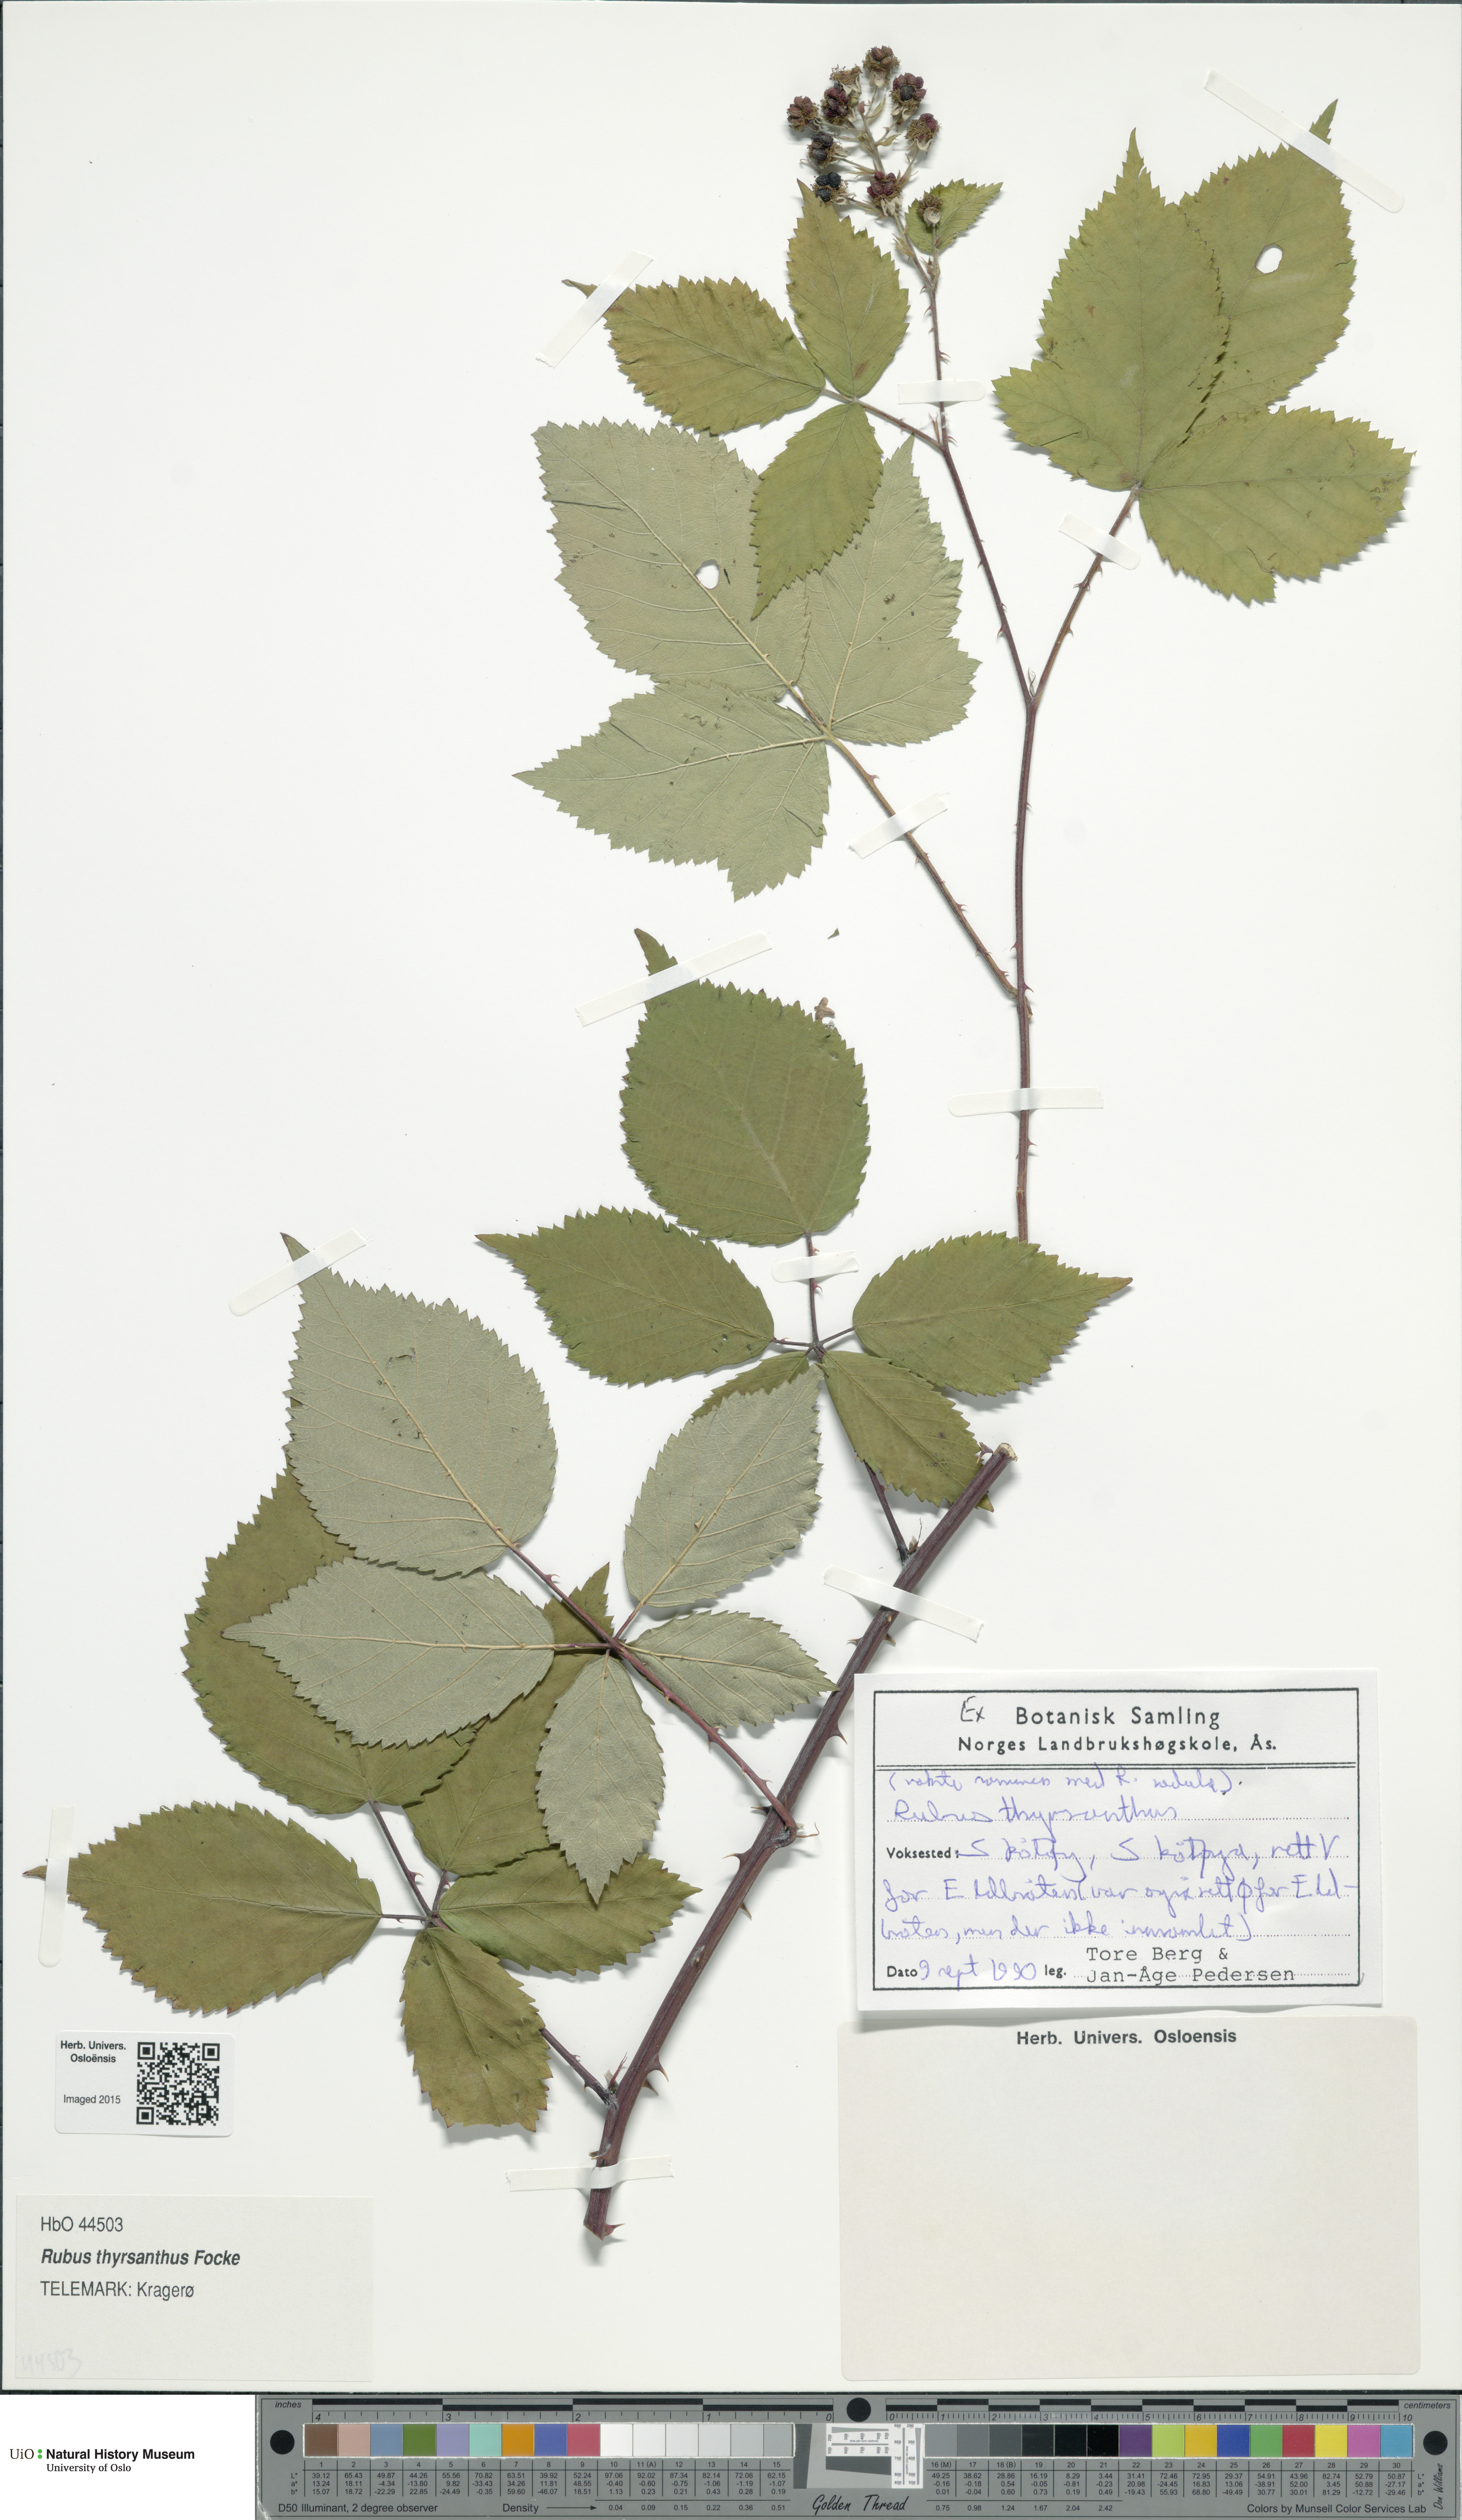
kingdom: Plantae
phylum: Tracheophyta
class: Magnoliopsida
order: Rosales
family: Rosaceae
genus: Rubus
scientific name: Rubus grabowskii
